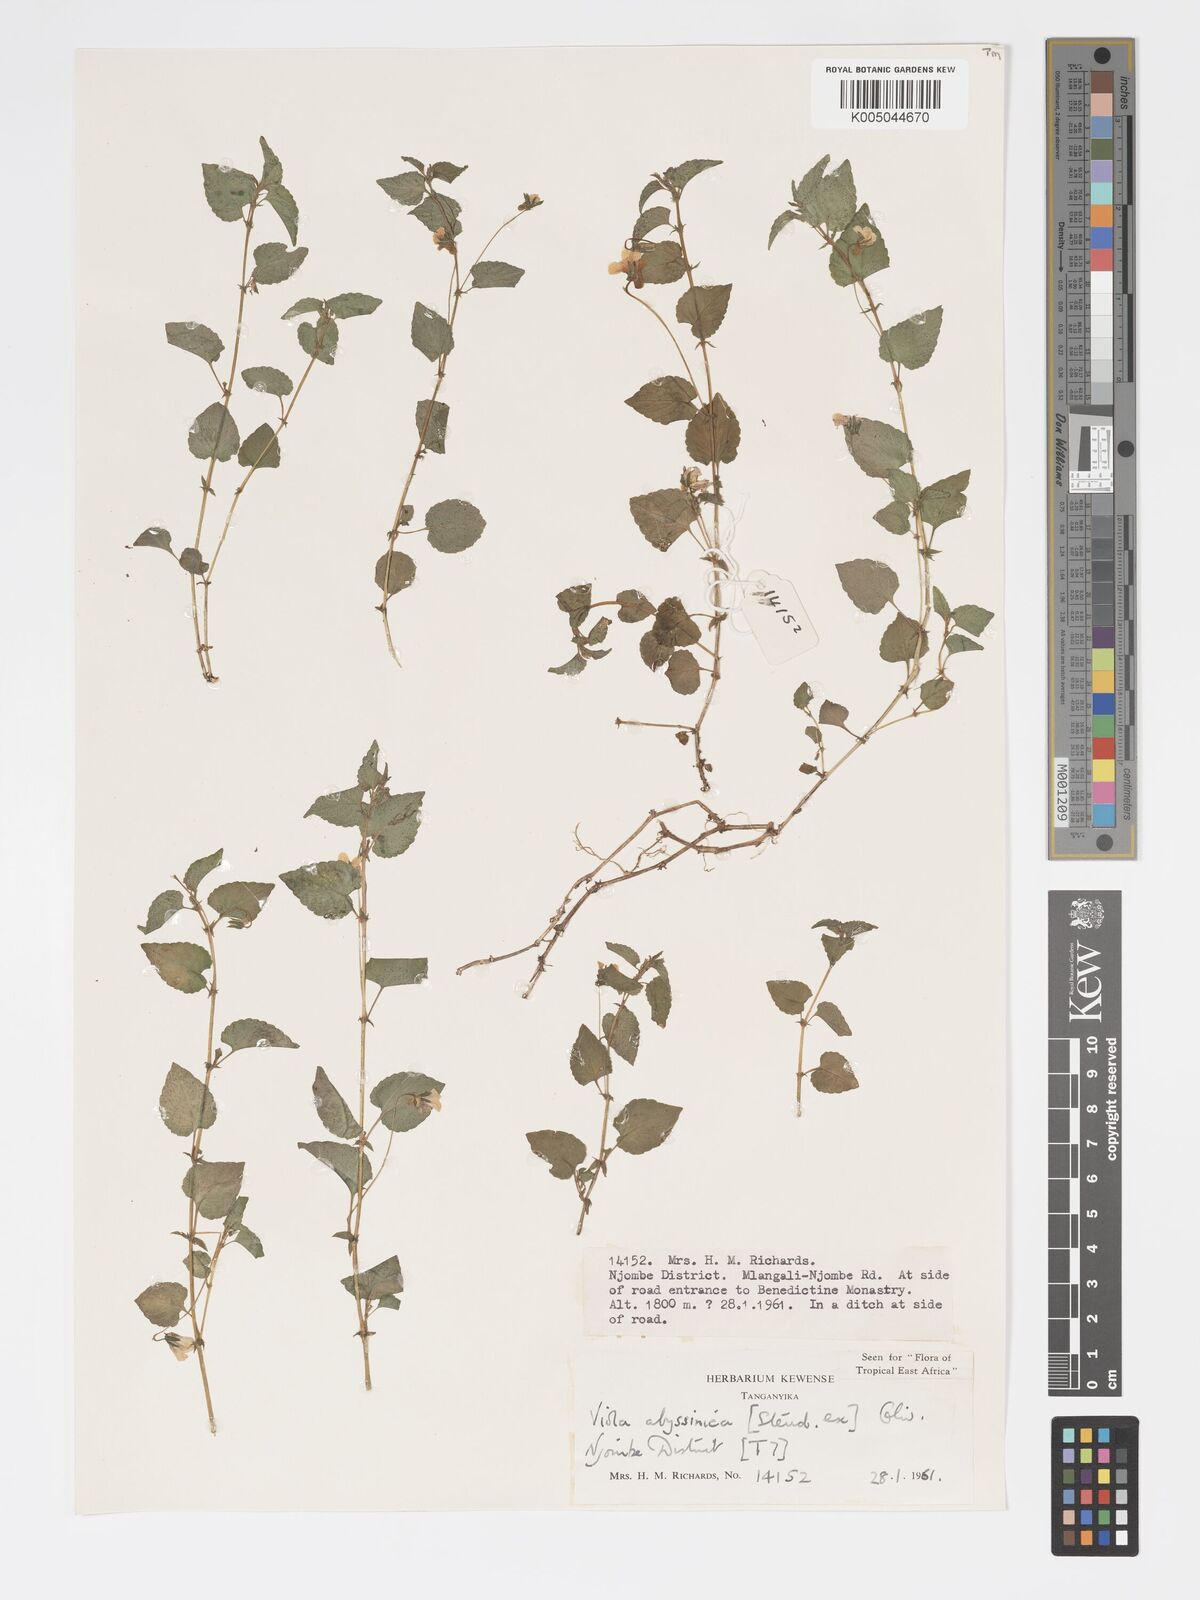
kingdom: Plantae
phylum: Tracheophyta
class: Magnoliopsida
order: Malpighiales
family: Violaceae
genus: Viola
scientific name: Viola abyssinica
